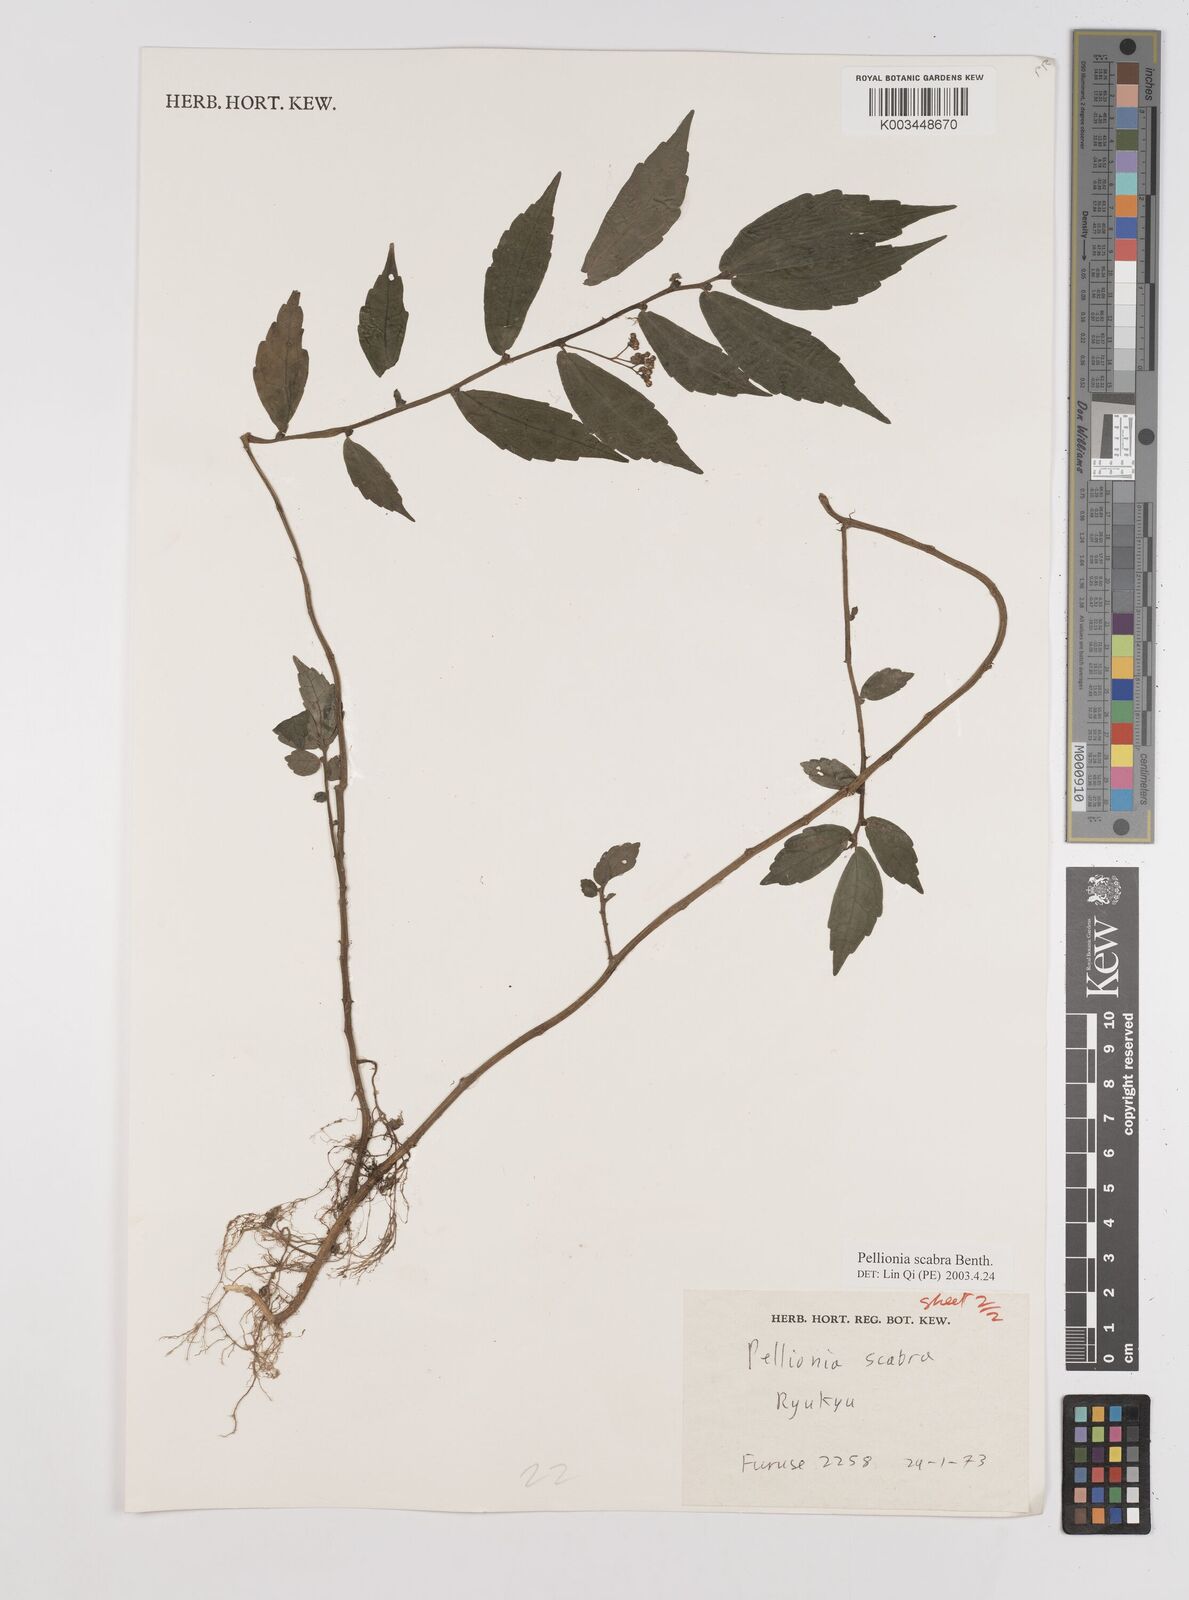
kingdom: Plantae
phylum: Tracheophyta
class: Magnoliopsida
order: Rosales
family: Urticaceae
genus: Elatostema
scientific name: Elatostema
